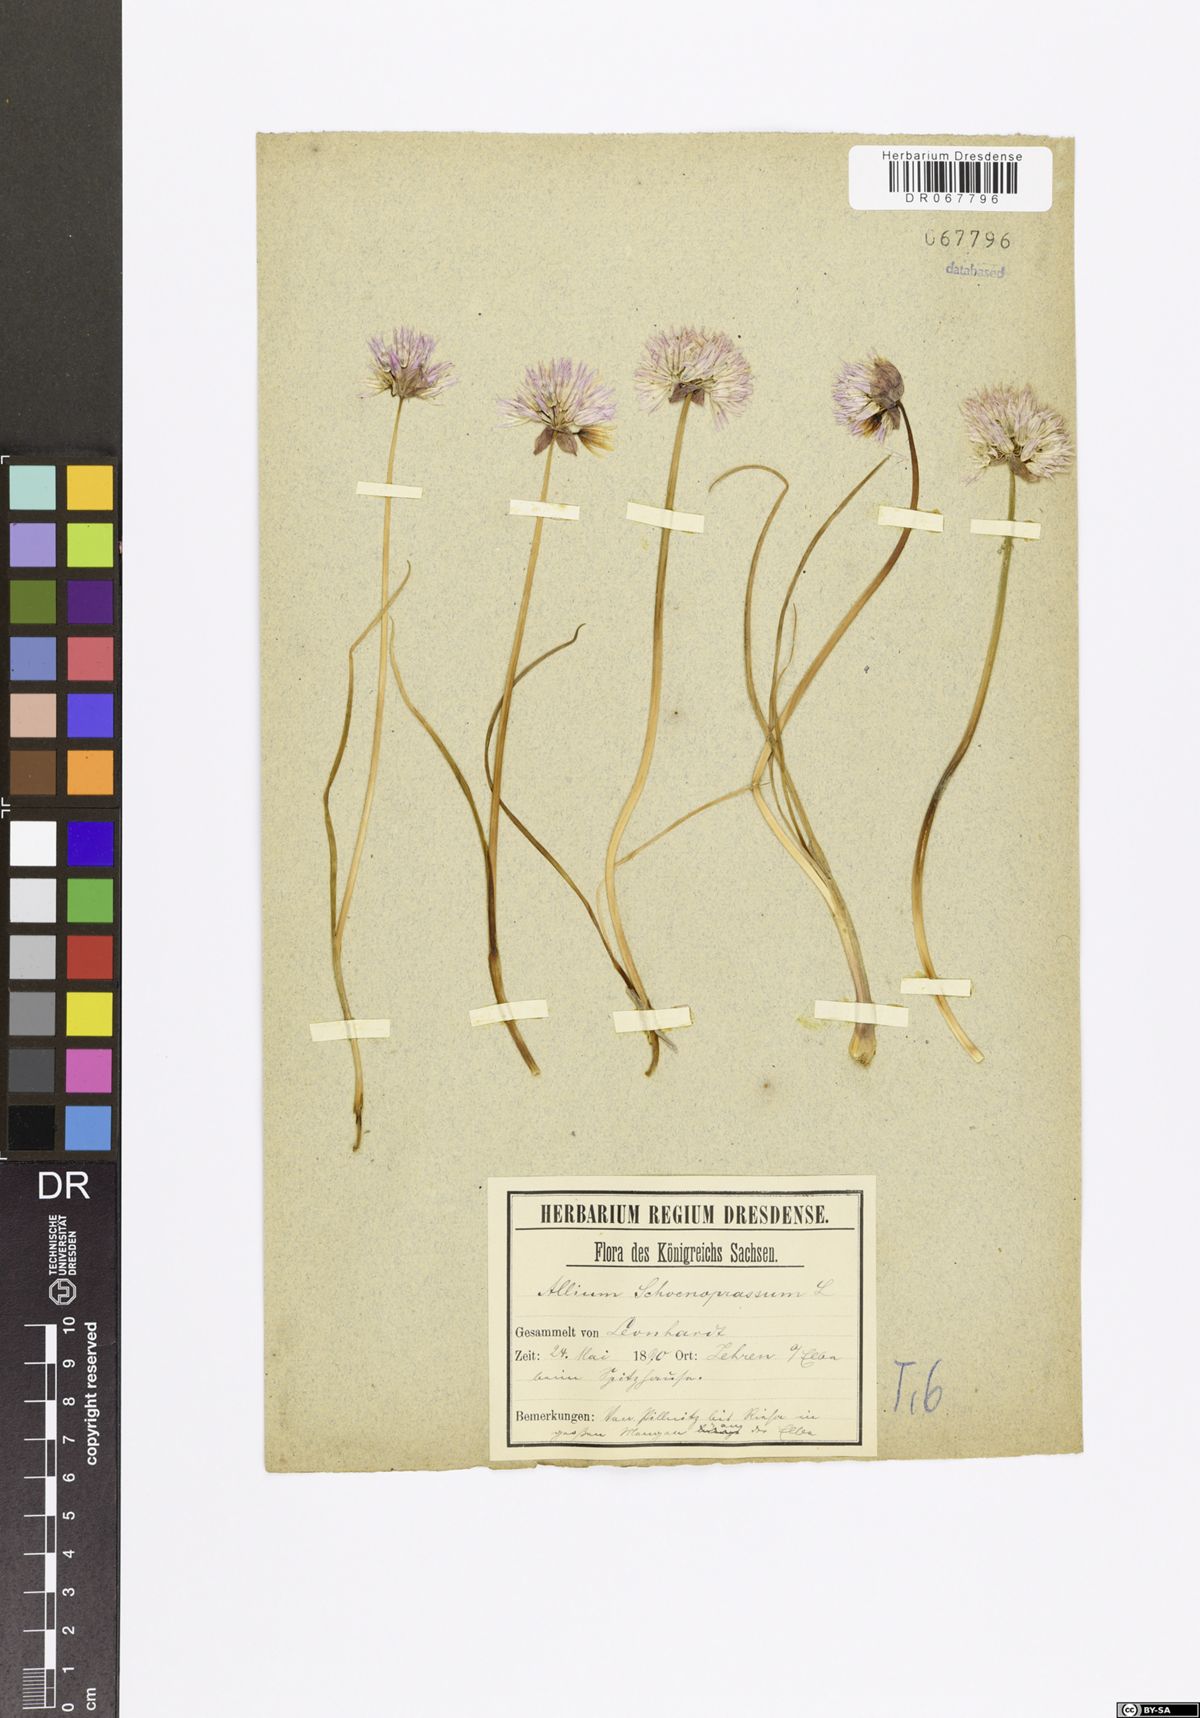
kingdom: Plantae
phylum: Tracheophyta
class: Liliopsida
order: Asparagales
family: Amaryllidaceae
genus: Allium
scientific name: Allium schoenoprasum
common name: Chives
